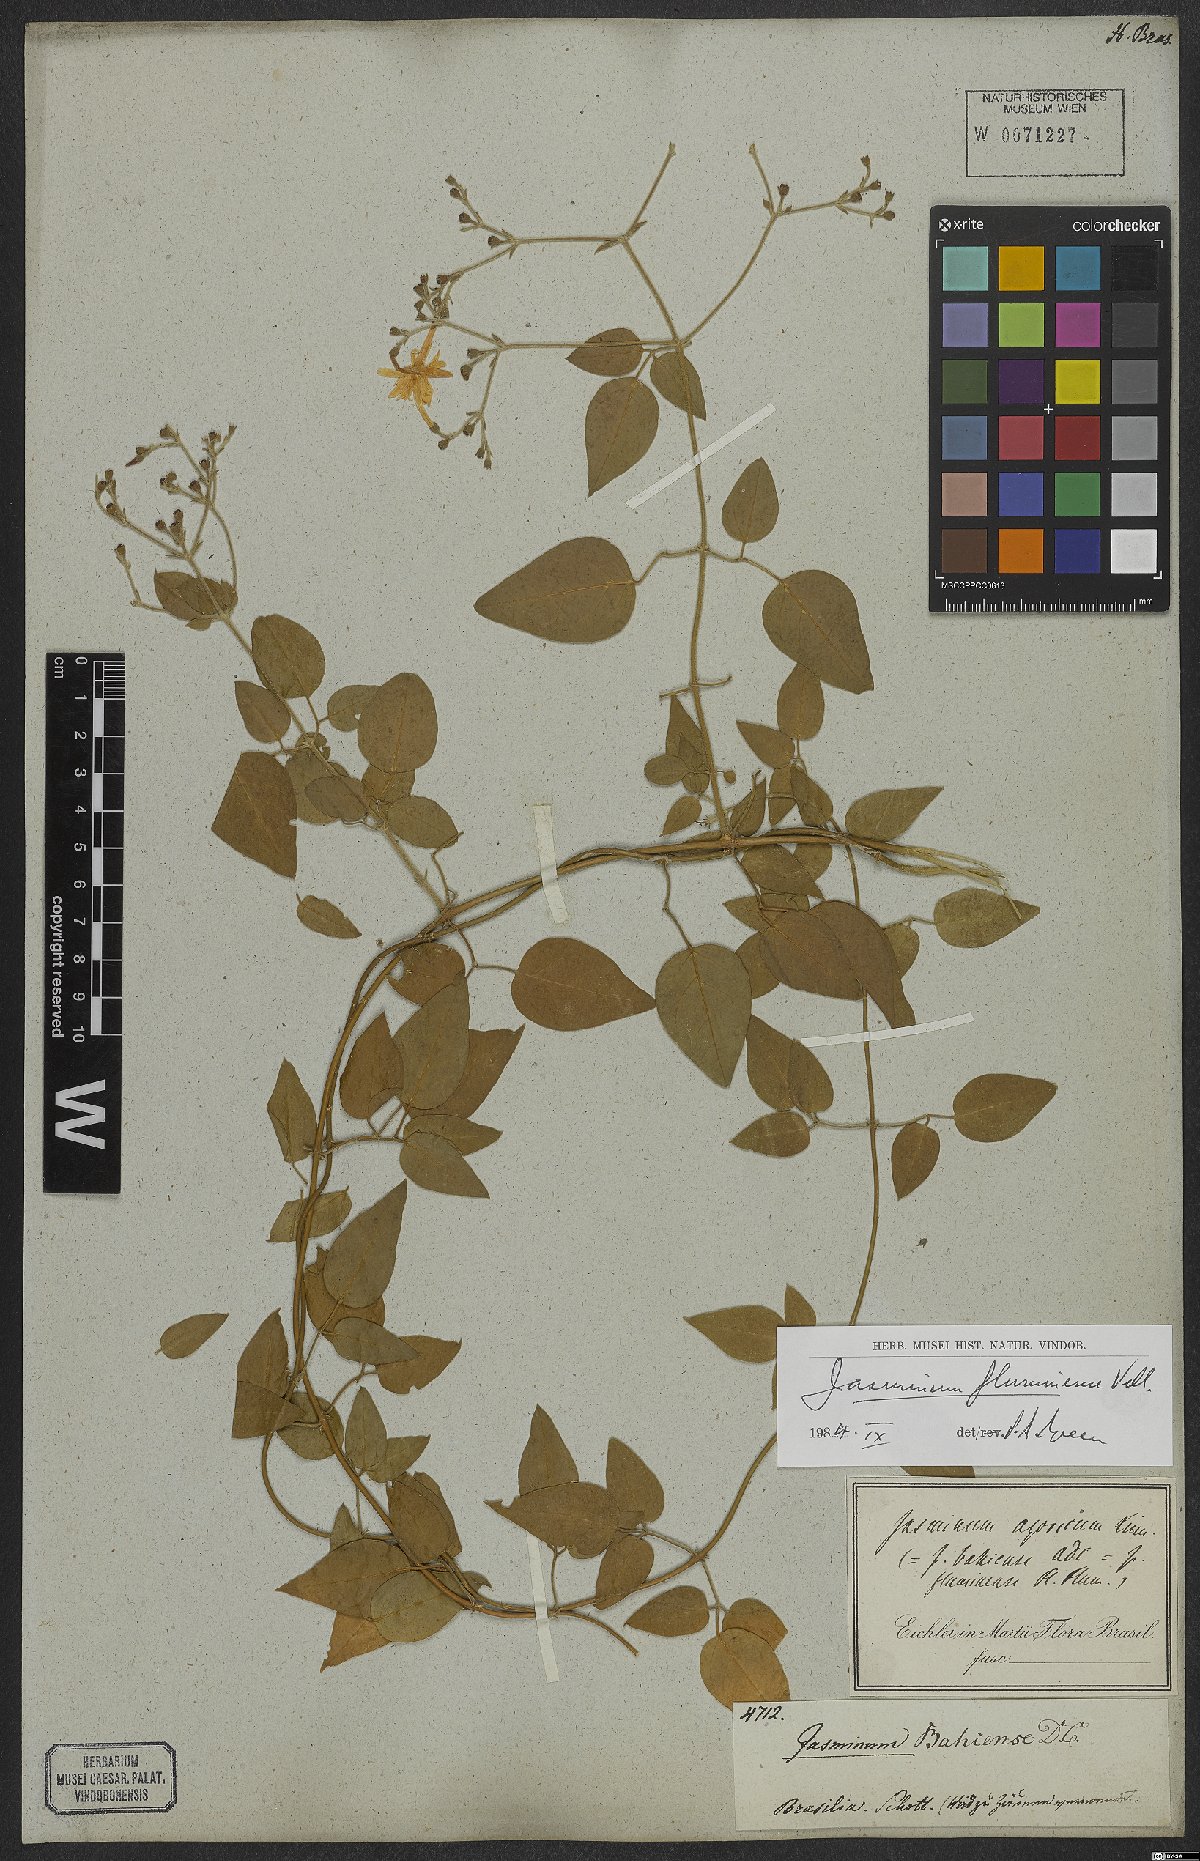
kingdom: Plantae
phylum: Tracheophyta
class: Magnoliopsida
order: Lamiales
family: Oleaceae
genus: Jasminum
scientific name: Jasminum fluminense
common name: Brazilian jasmine
